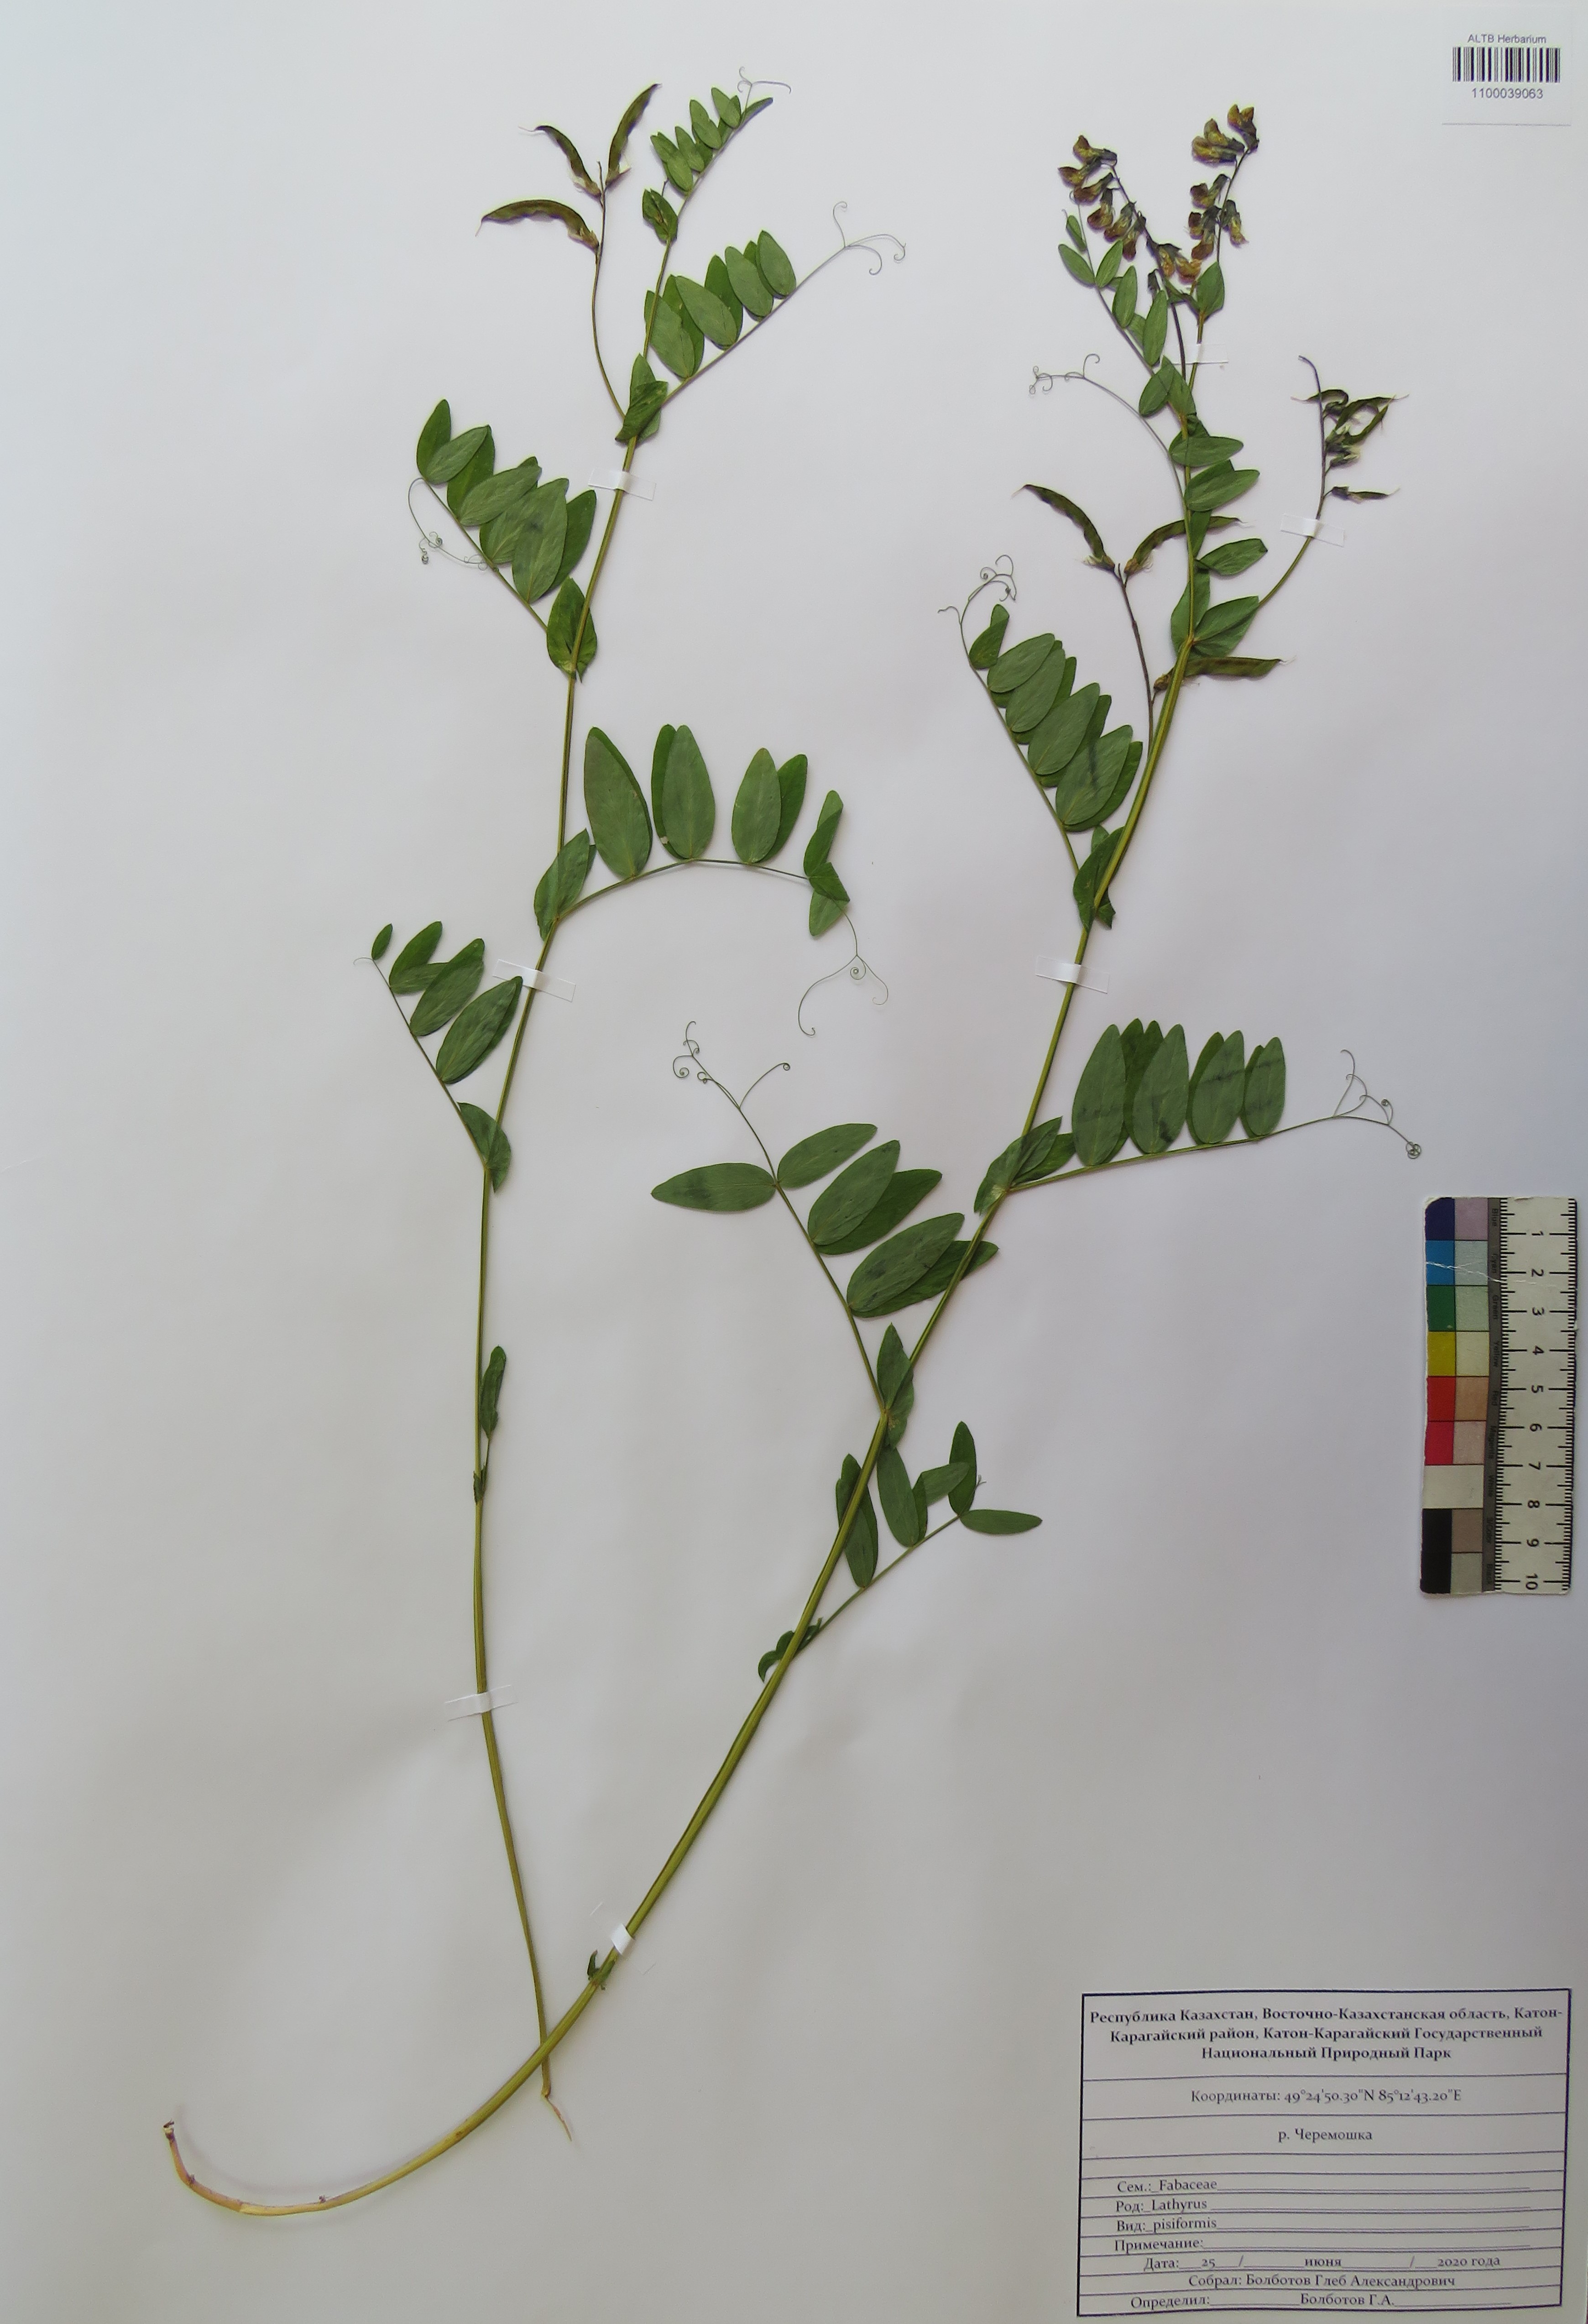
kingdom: Plantae
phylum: Tracheophyta
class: Magnoliopsida
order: Fabales
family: Fabaceae
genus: Lathyrus
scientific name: Lathyrus pisiformis
